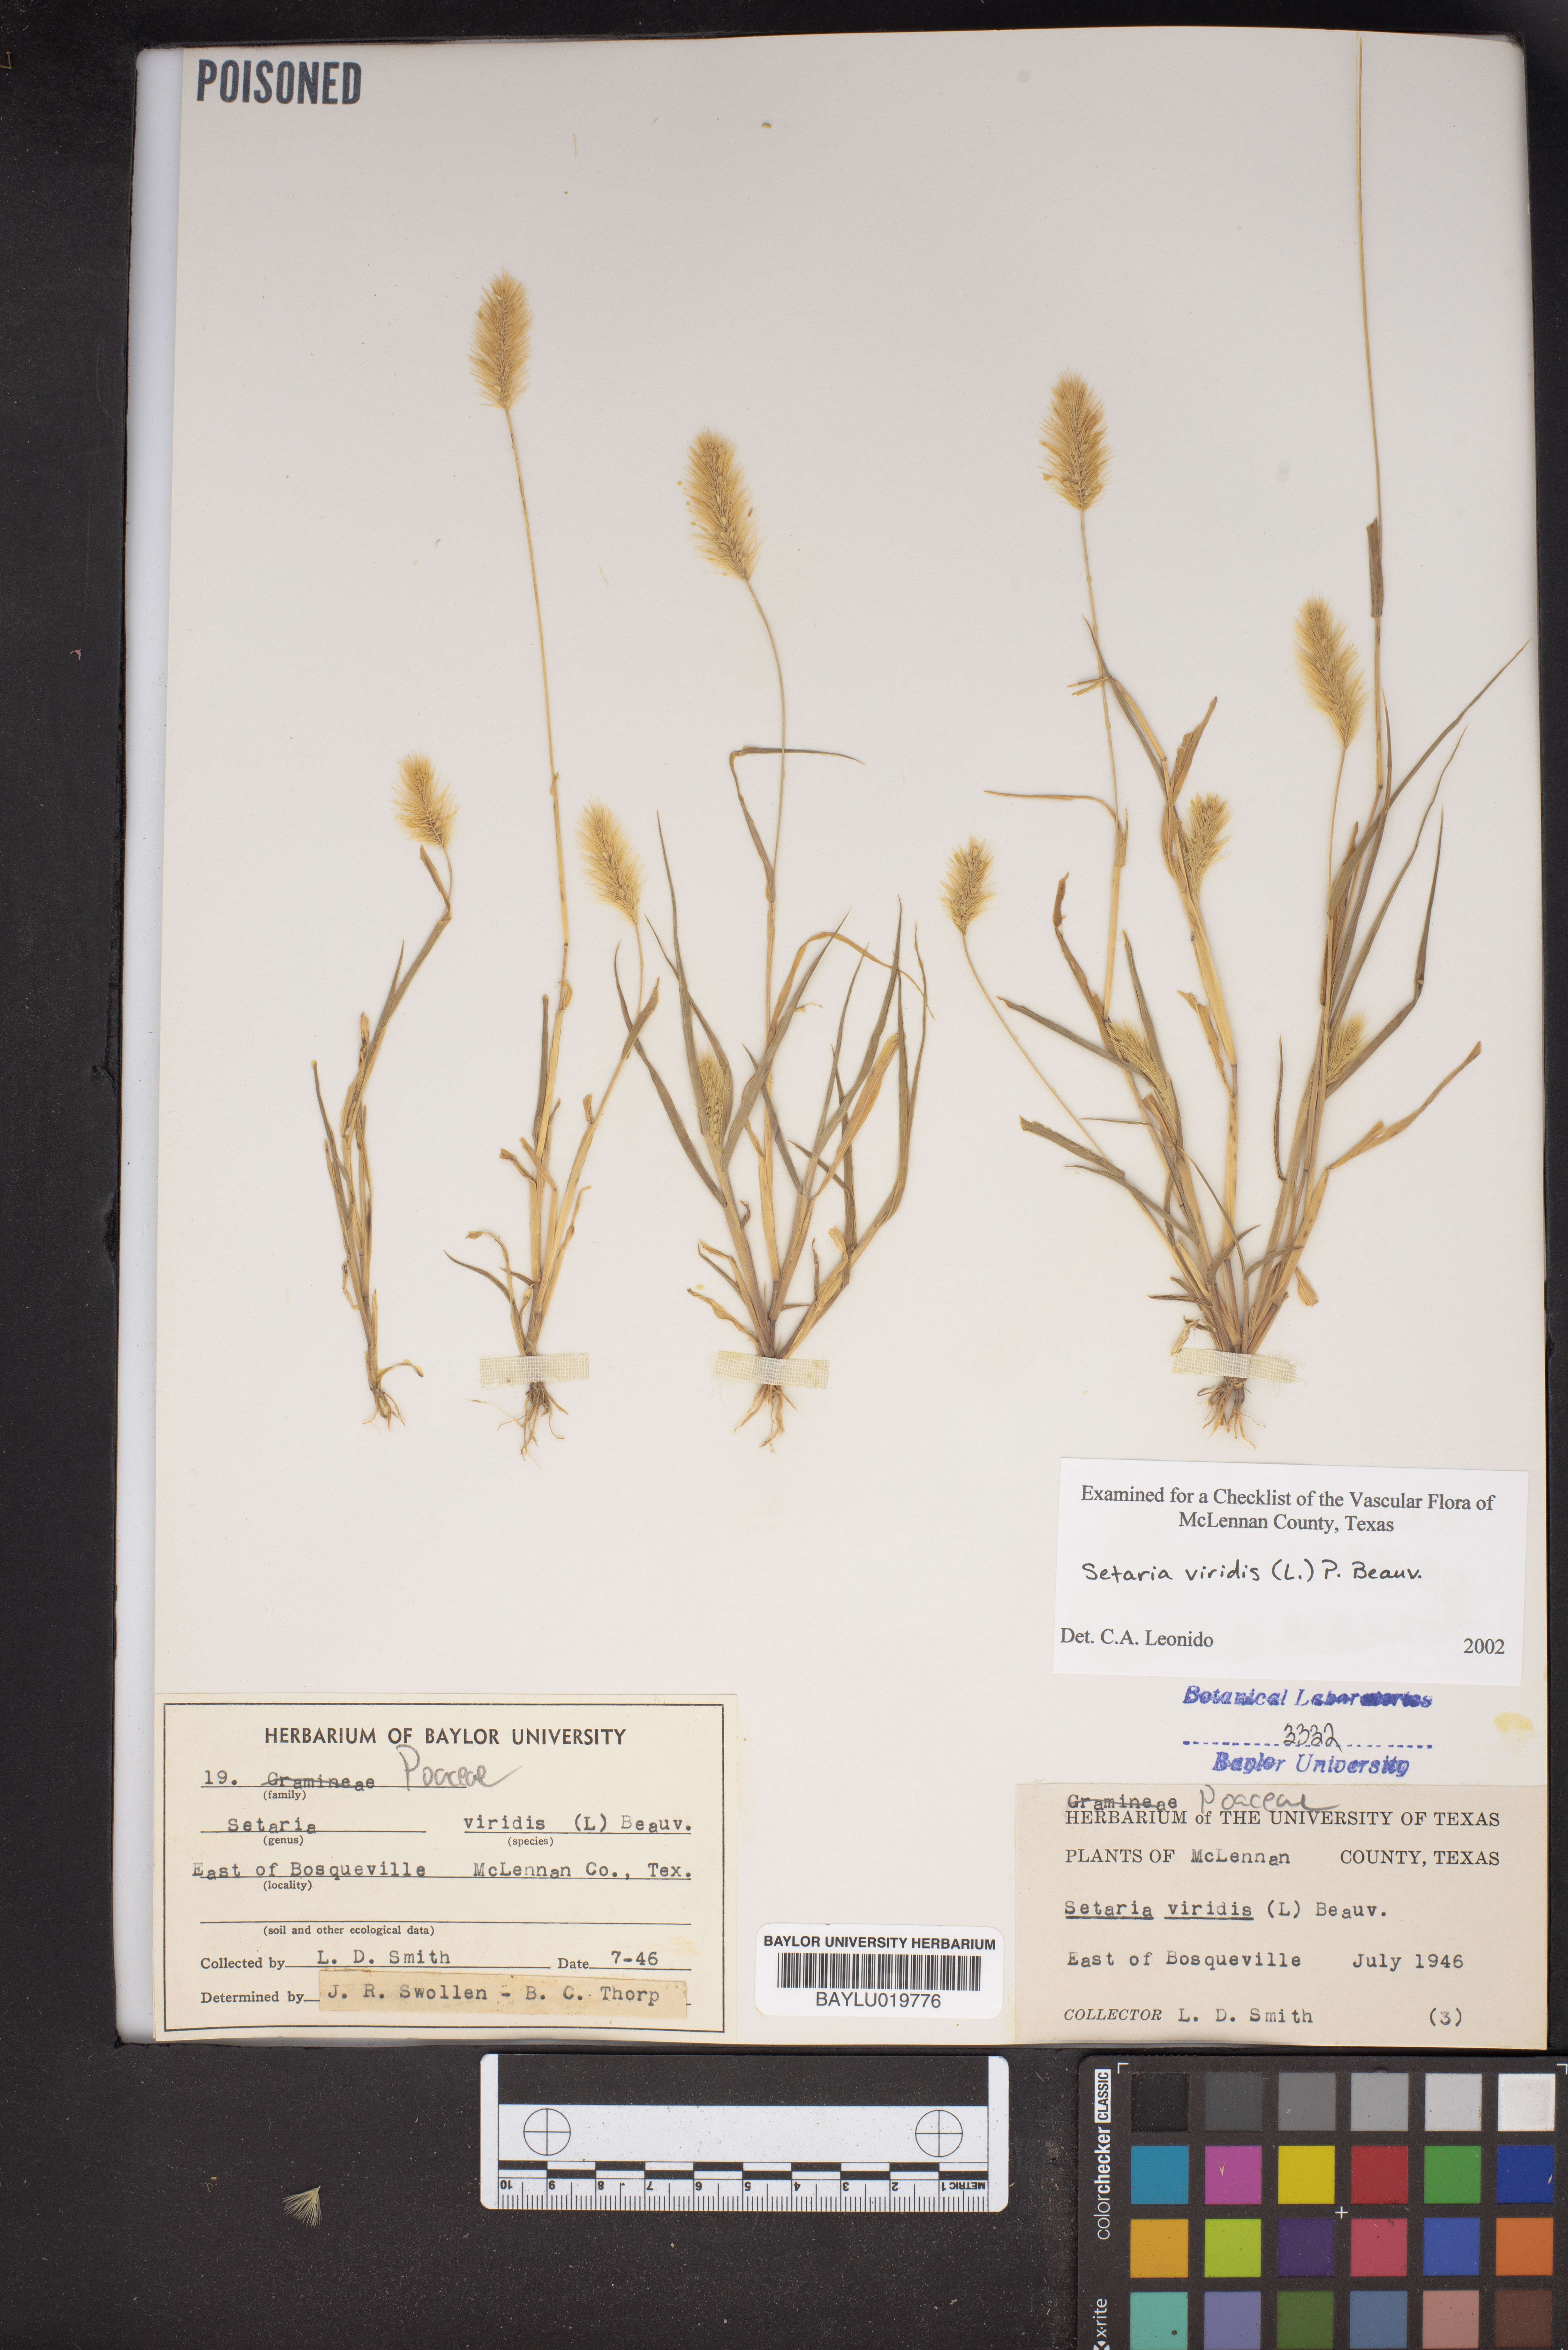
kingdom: Plantae
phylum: Tracheophyta
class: Liliopsida
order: Poales
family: Poaceae
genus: Setaria
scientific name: Setaria viridis
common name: Green bristlegrass
